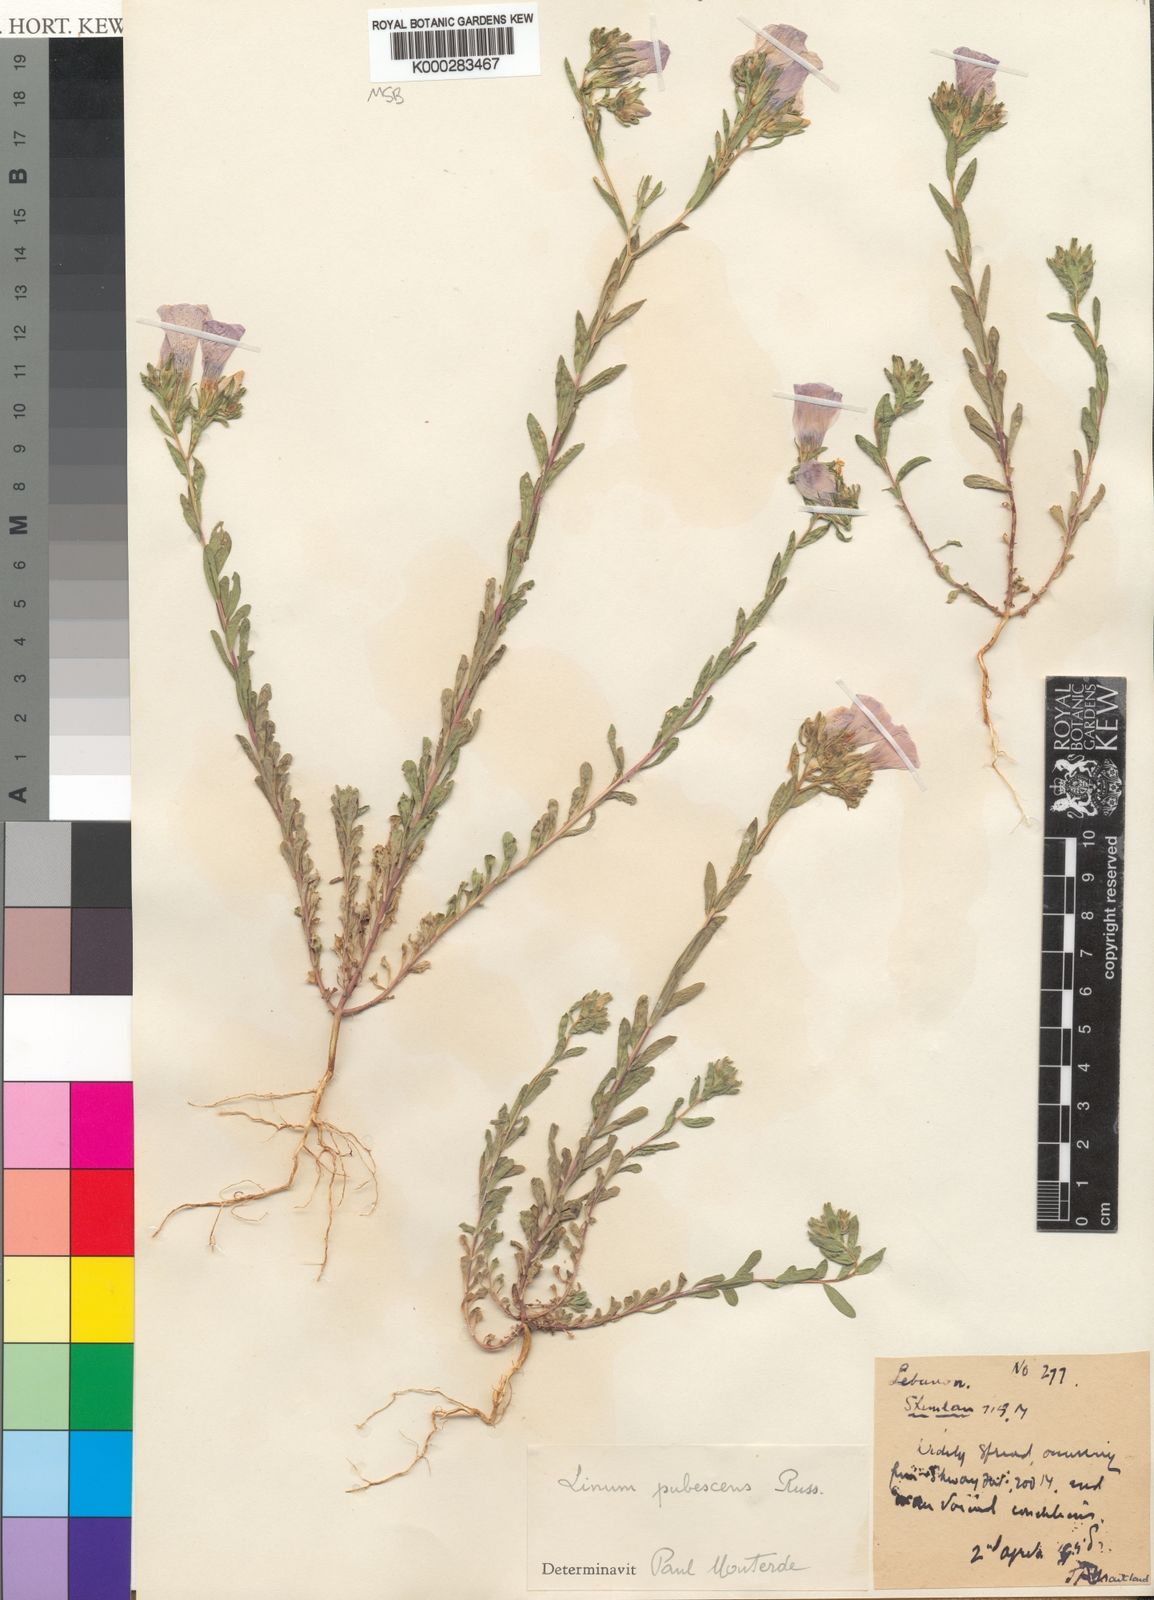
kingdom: Plantae
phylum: Tracheophyta
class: Magnoliopsida
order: Malpighiales
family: Linaceae
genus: Linum
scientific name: Linum pubescens
